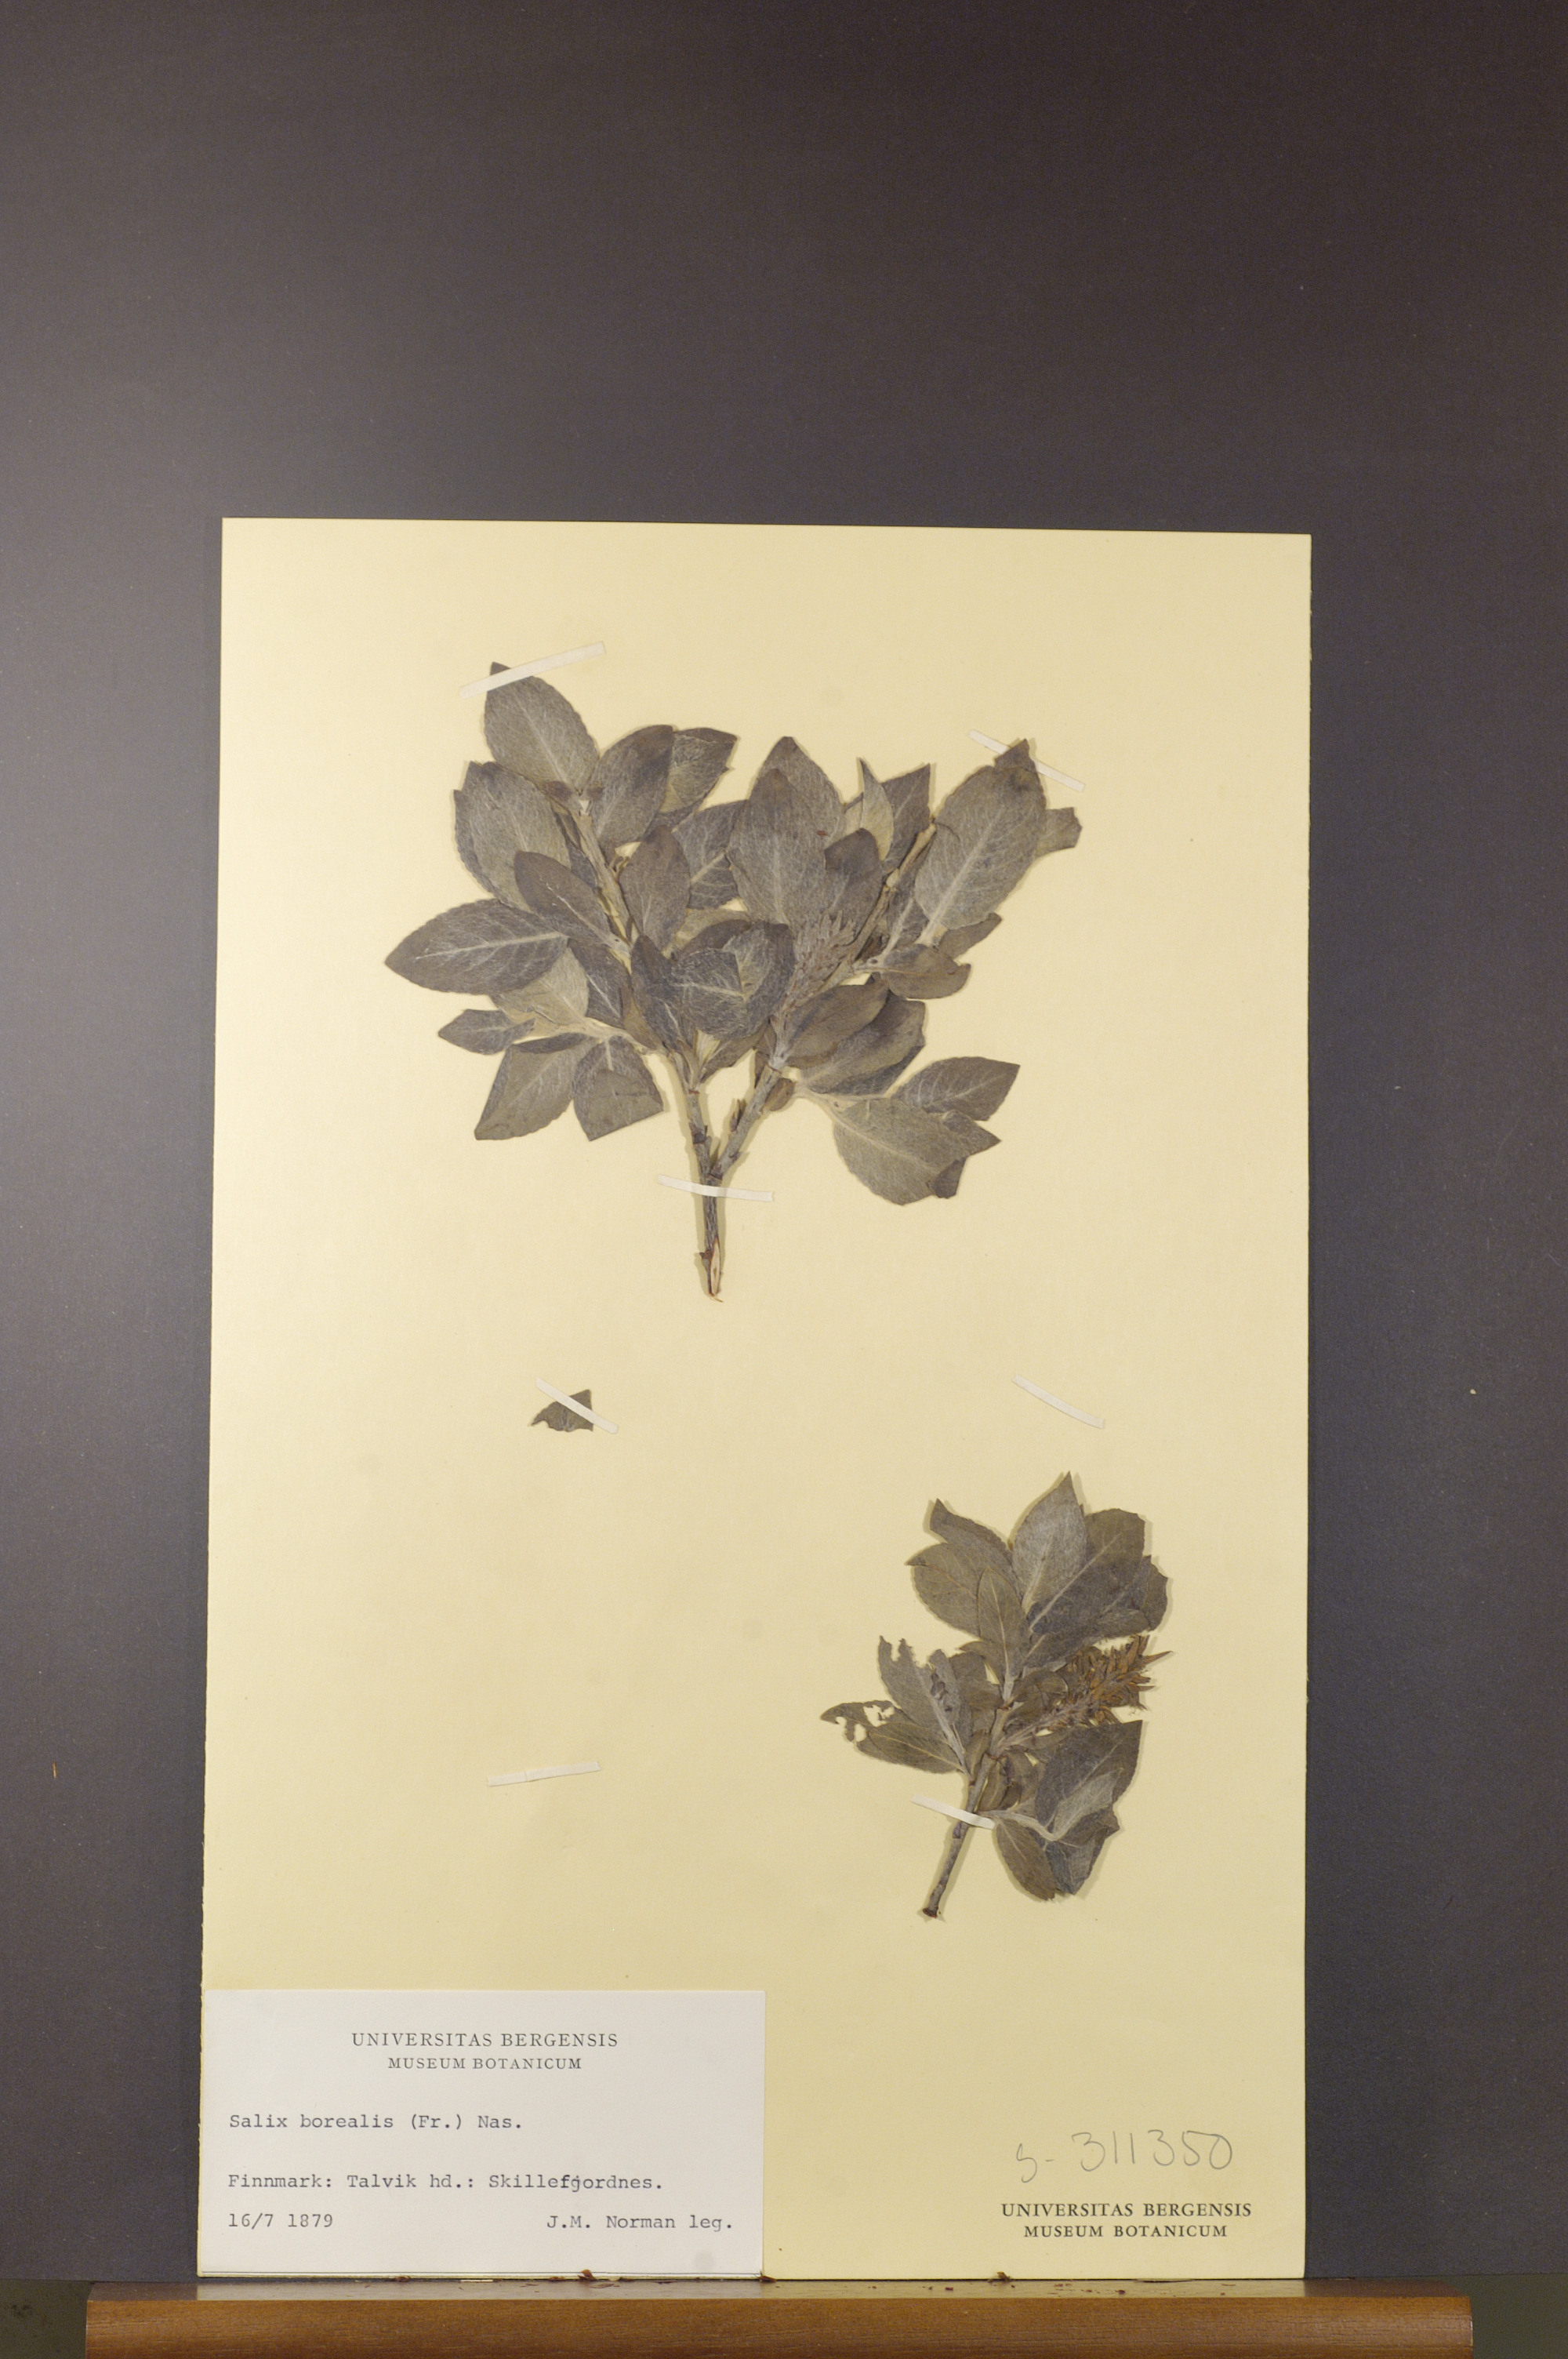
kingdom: Plantae
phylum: Tracheophyta
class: Magnoliopsida
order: Malpighiales
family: Salicaceae
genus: Salix
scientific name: Salix myrsinifolia
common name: Dark-leaved willow
